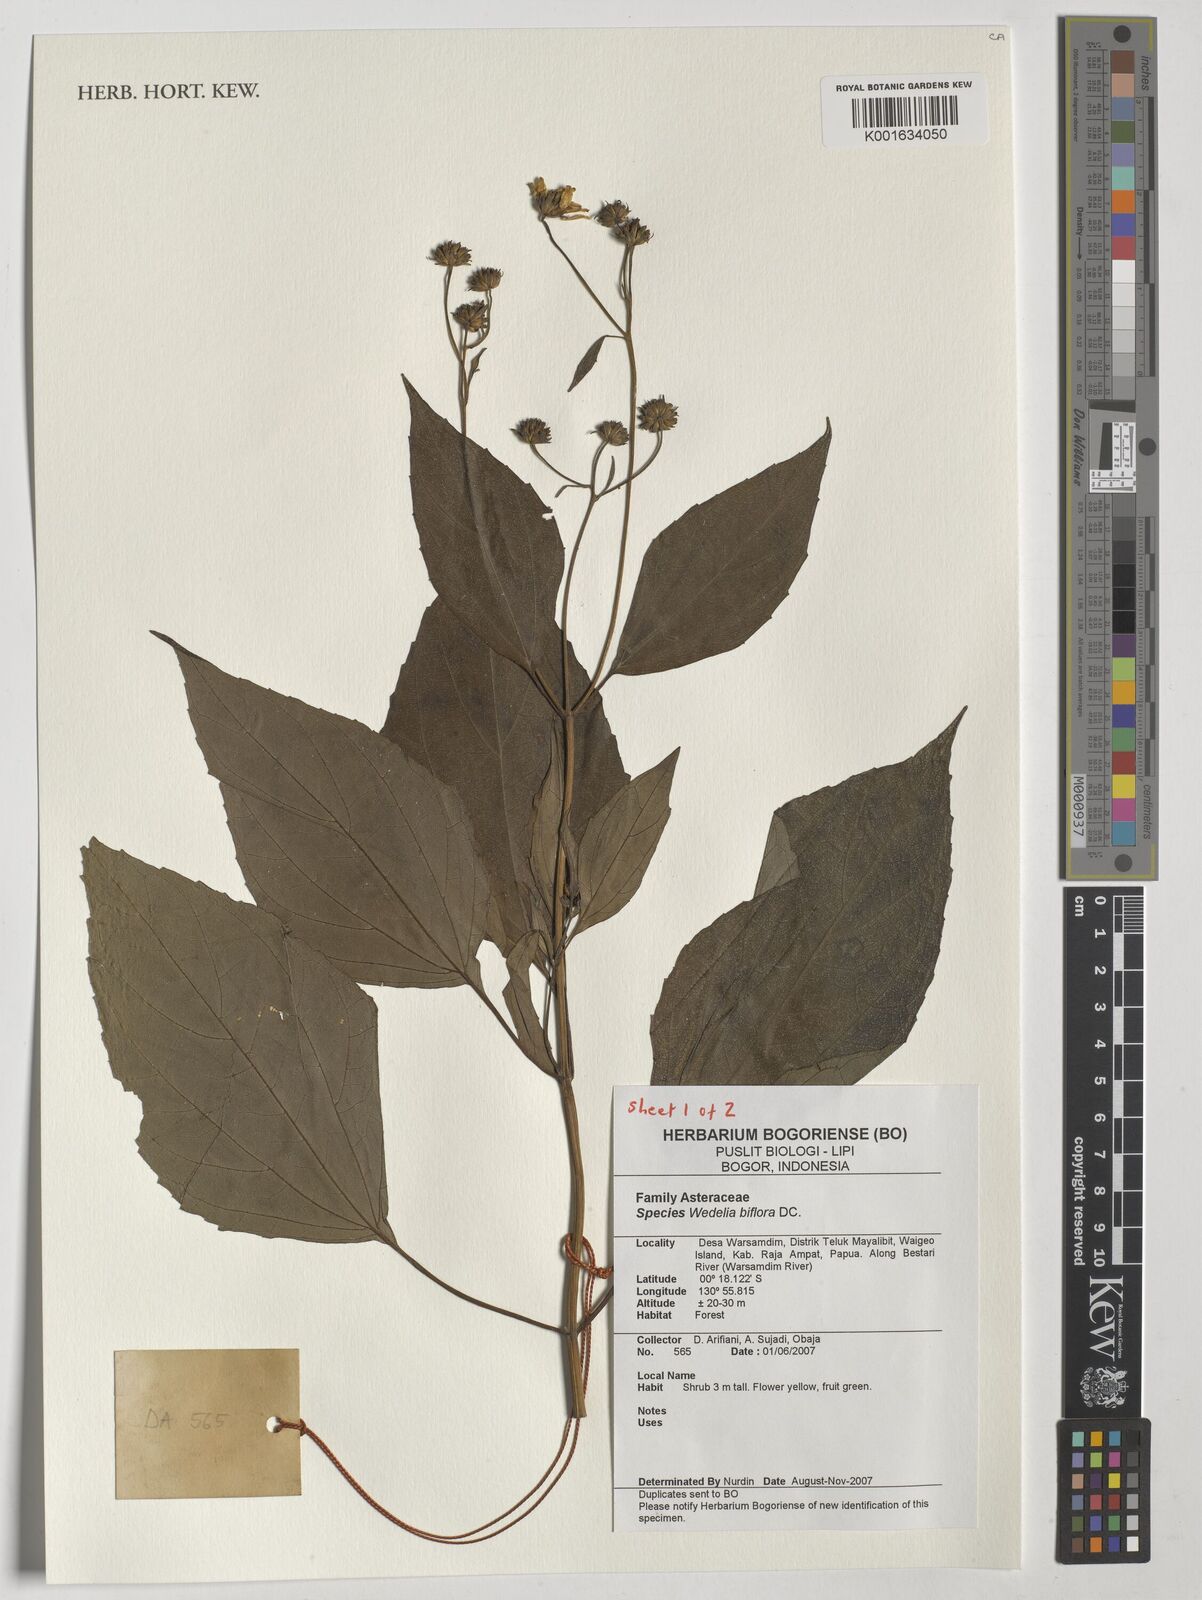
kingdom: Plantae
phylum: Tracheophyta
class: Magnoliopsida
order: Asterales
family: Asteraceae
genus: Wollastonia
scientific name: Wollastonia biflora
